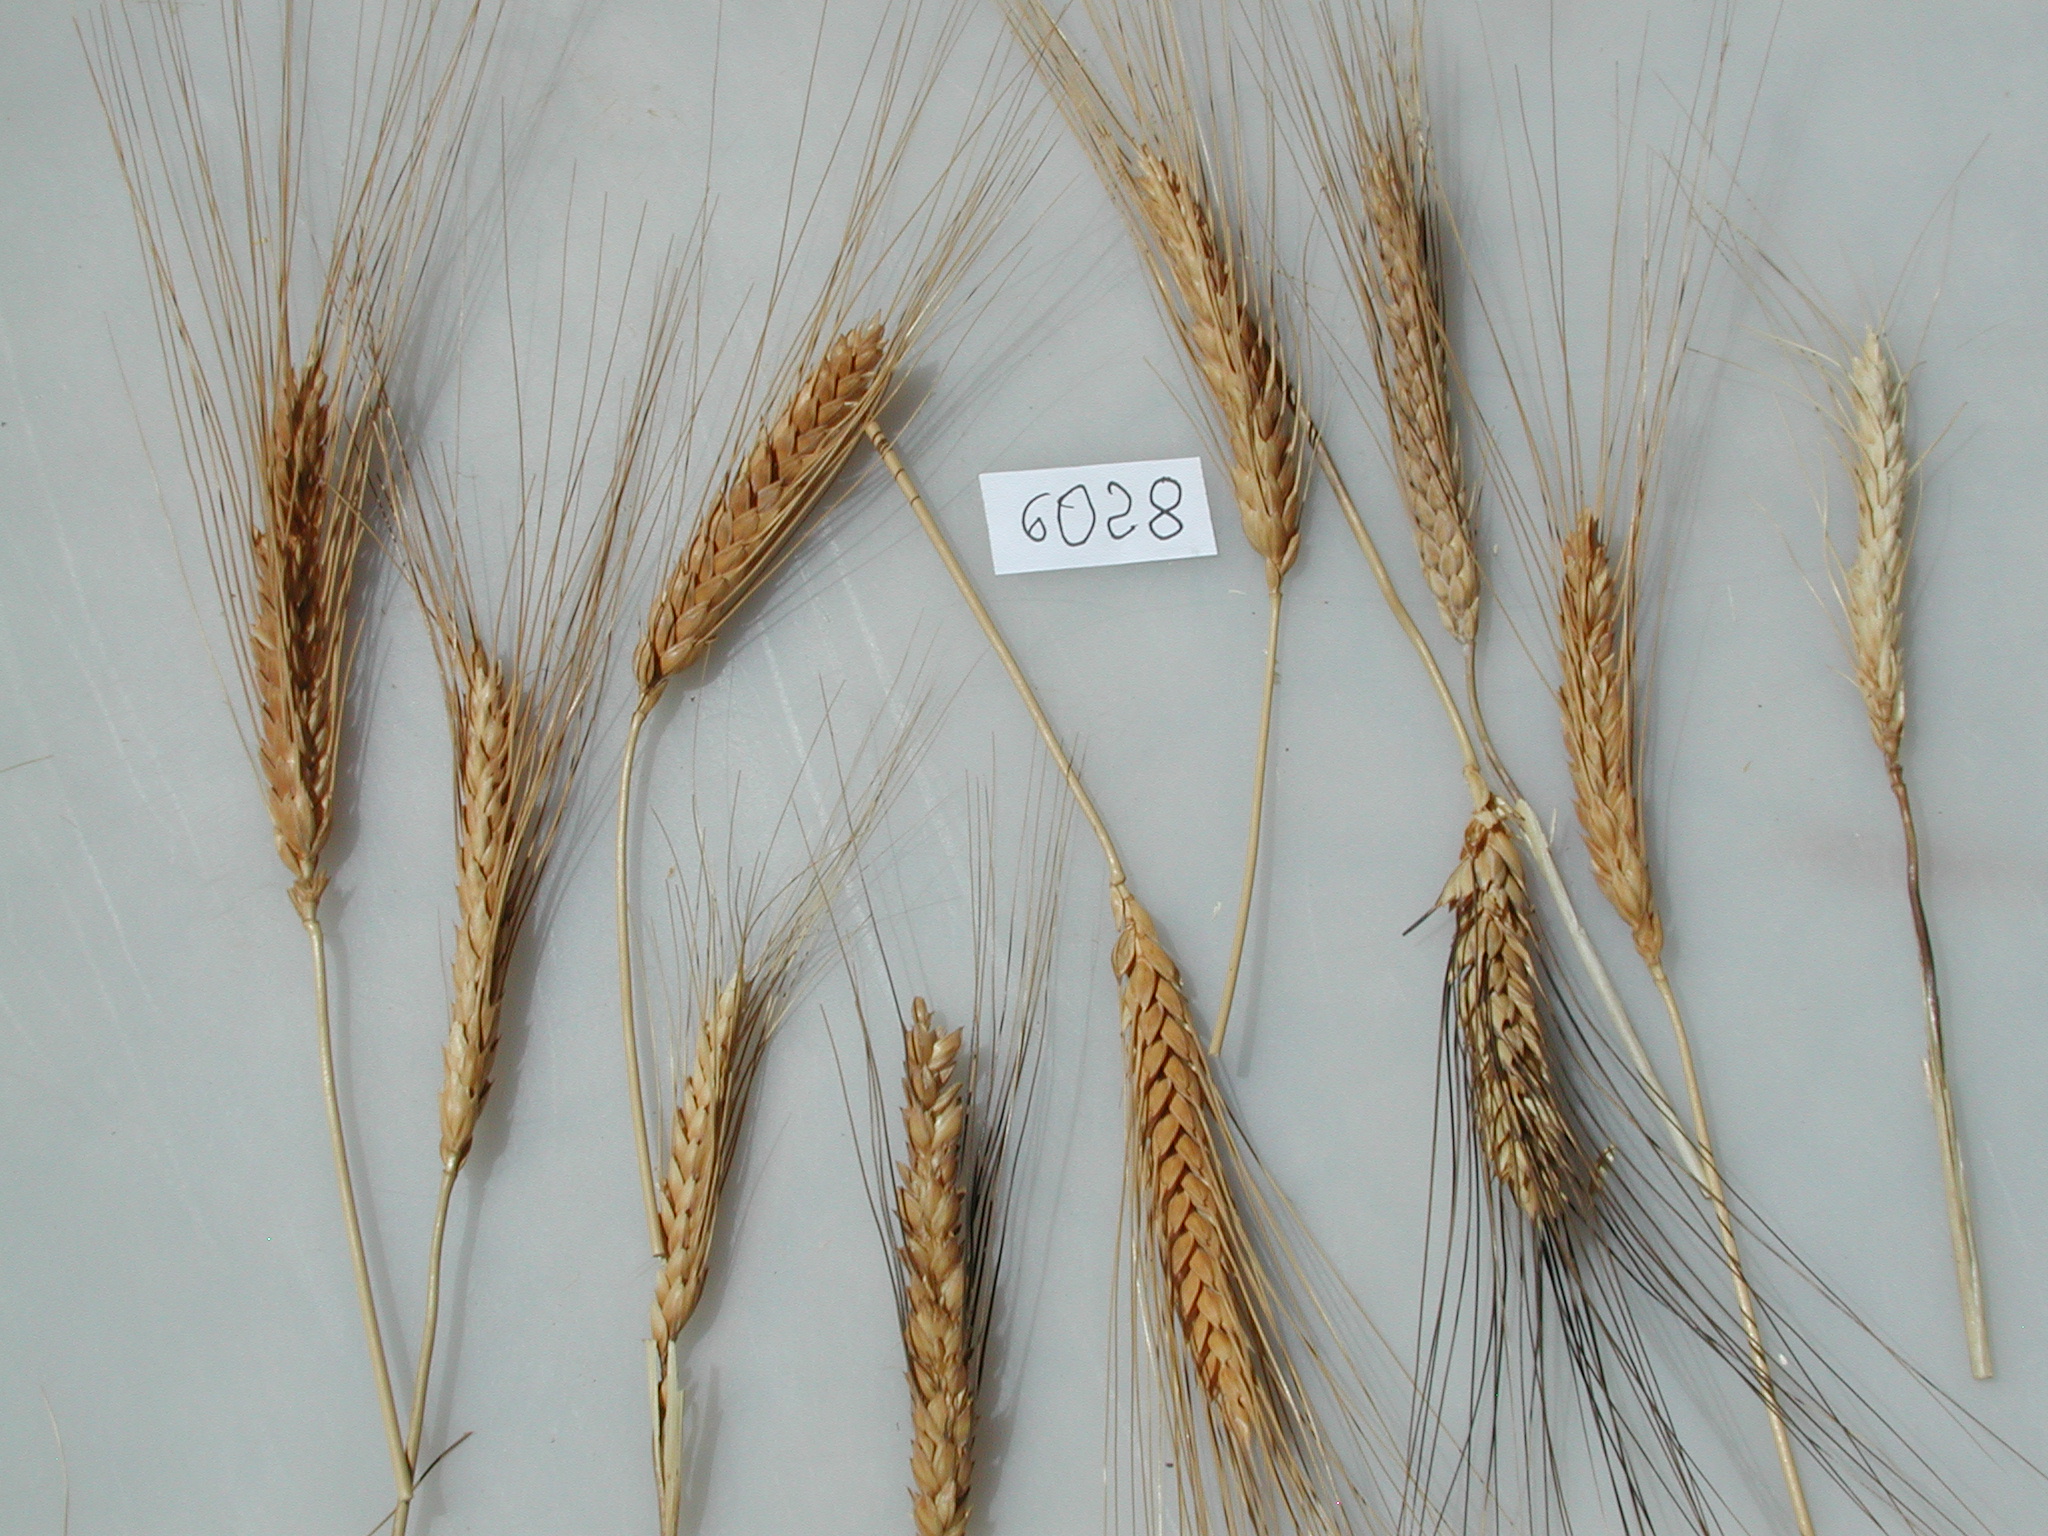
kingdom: Plantae
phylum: Tracheophyta
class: Liliopsida
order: Poales
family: Poaceae
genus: Triticum
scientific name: Triticum turgidum
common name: Wheat
